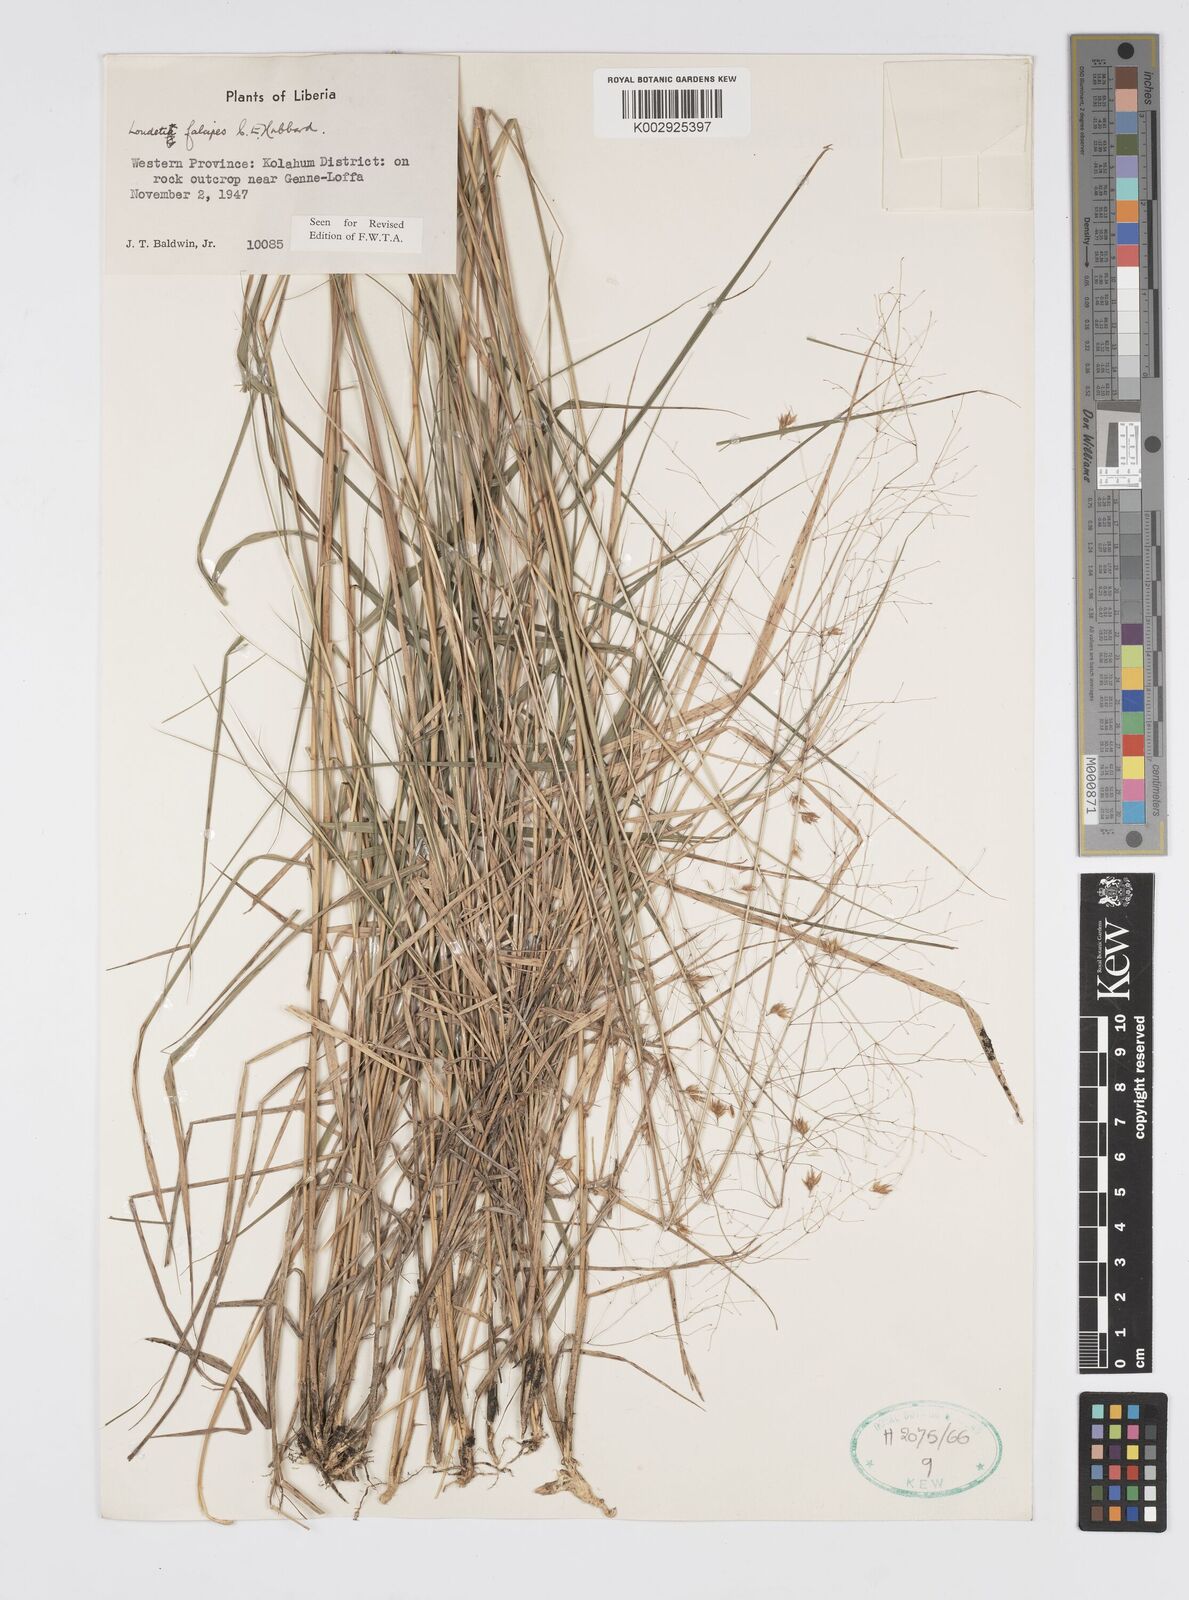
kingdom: Plantae
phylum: Tracheophyta
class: Liliopsida
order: Poales
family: Poaceae
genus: Loudetiopsis
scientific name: Loudetiopsis falcipes
